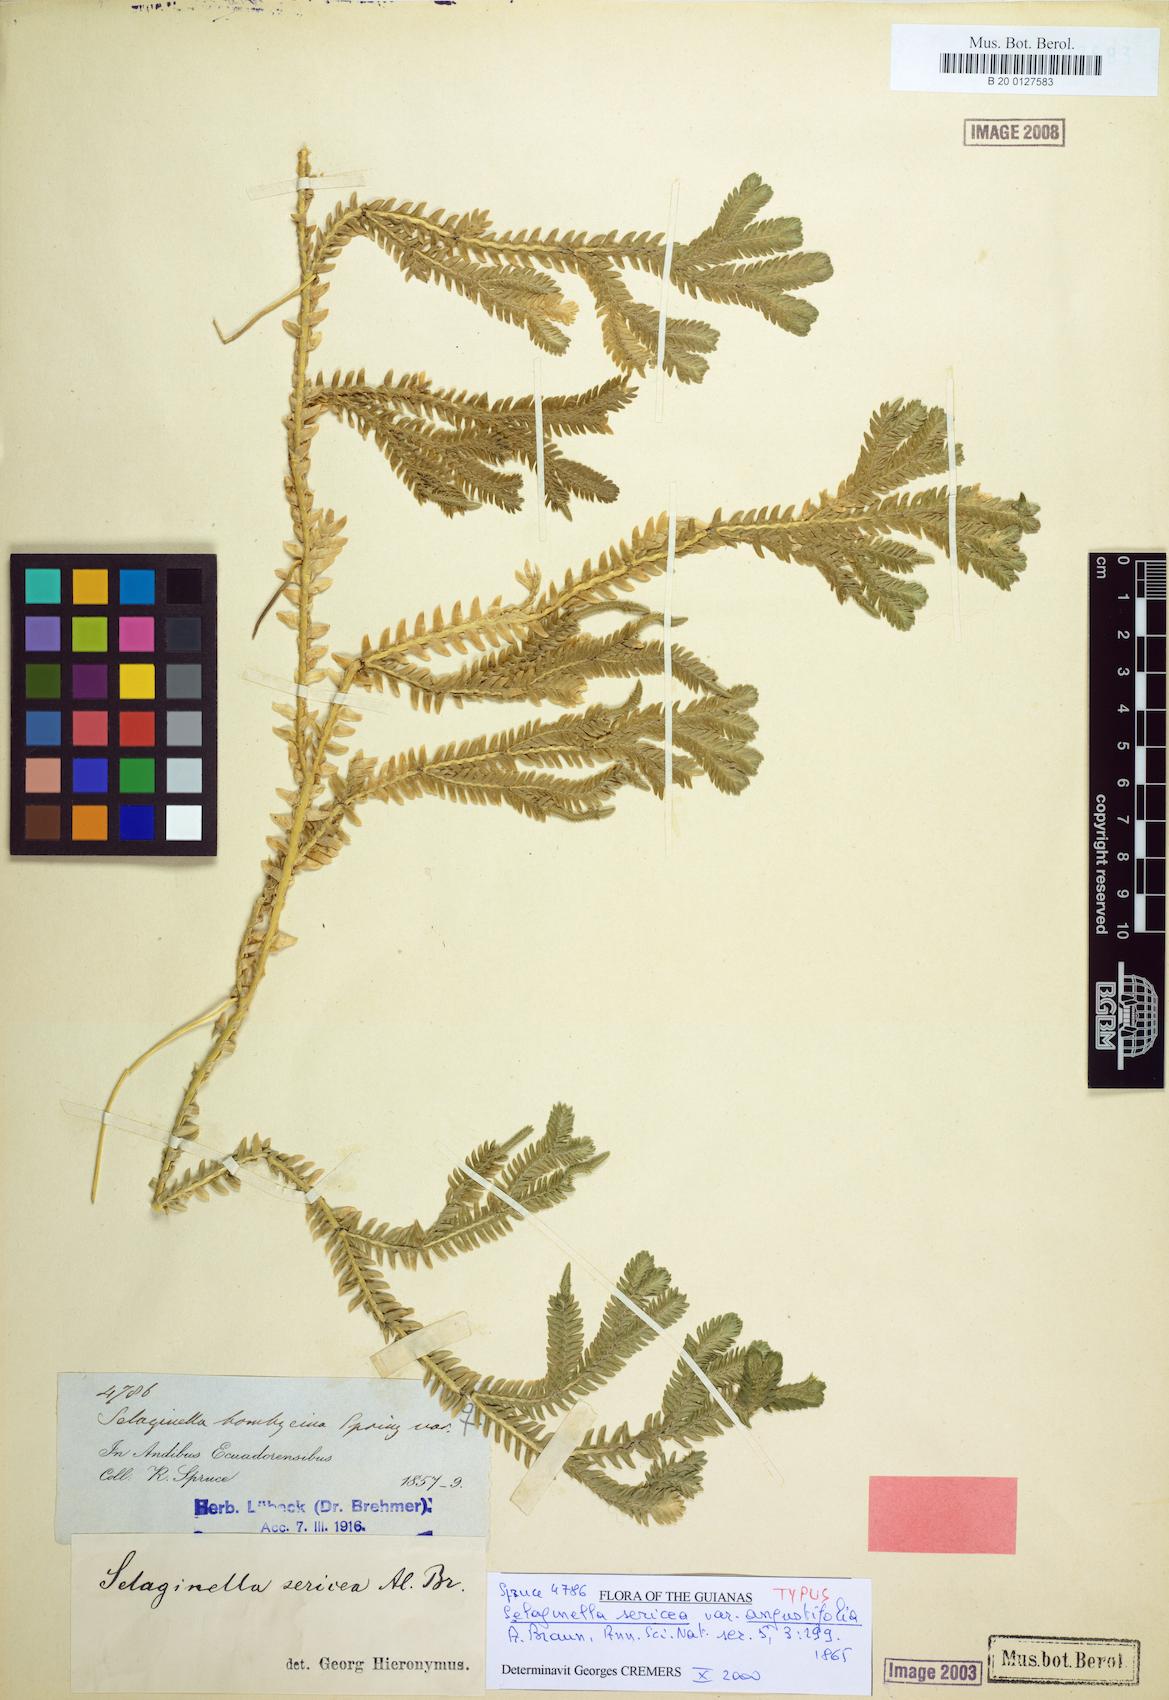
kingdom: Plantae
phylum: Tracheophyta
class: Lycopodiopsida
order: Selaginellales
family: Selaginellaceae
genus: Selaginella
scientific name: Selaginella sericea
